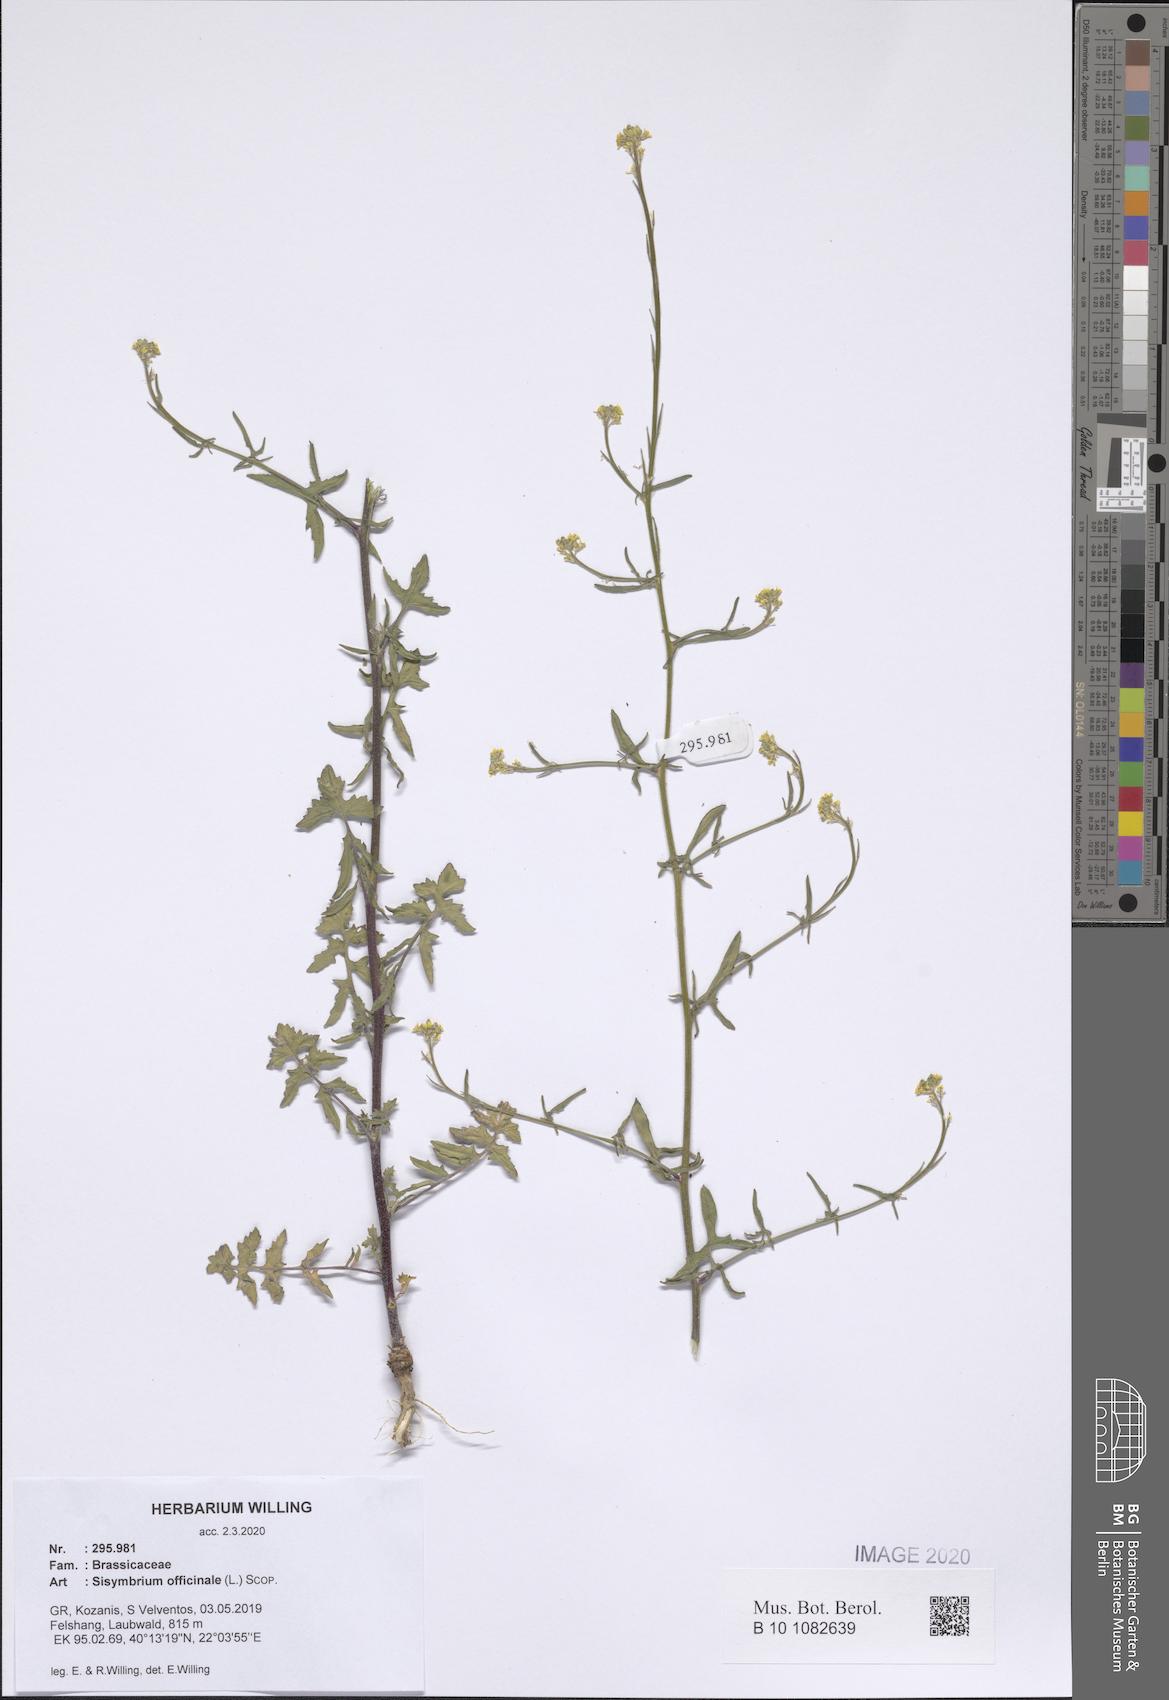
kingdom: Plantae
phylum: Tracheophyta
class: Magnoliopsida
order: Brassicales
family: Brassicaceae
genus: Sisymbrium
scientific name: Sisymbrium officinale
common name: Hedge mustard
